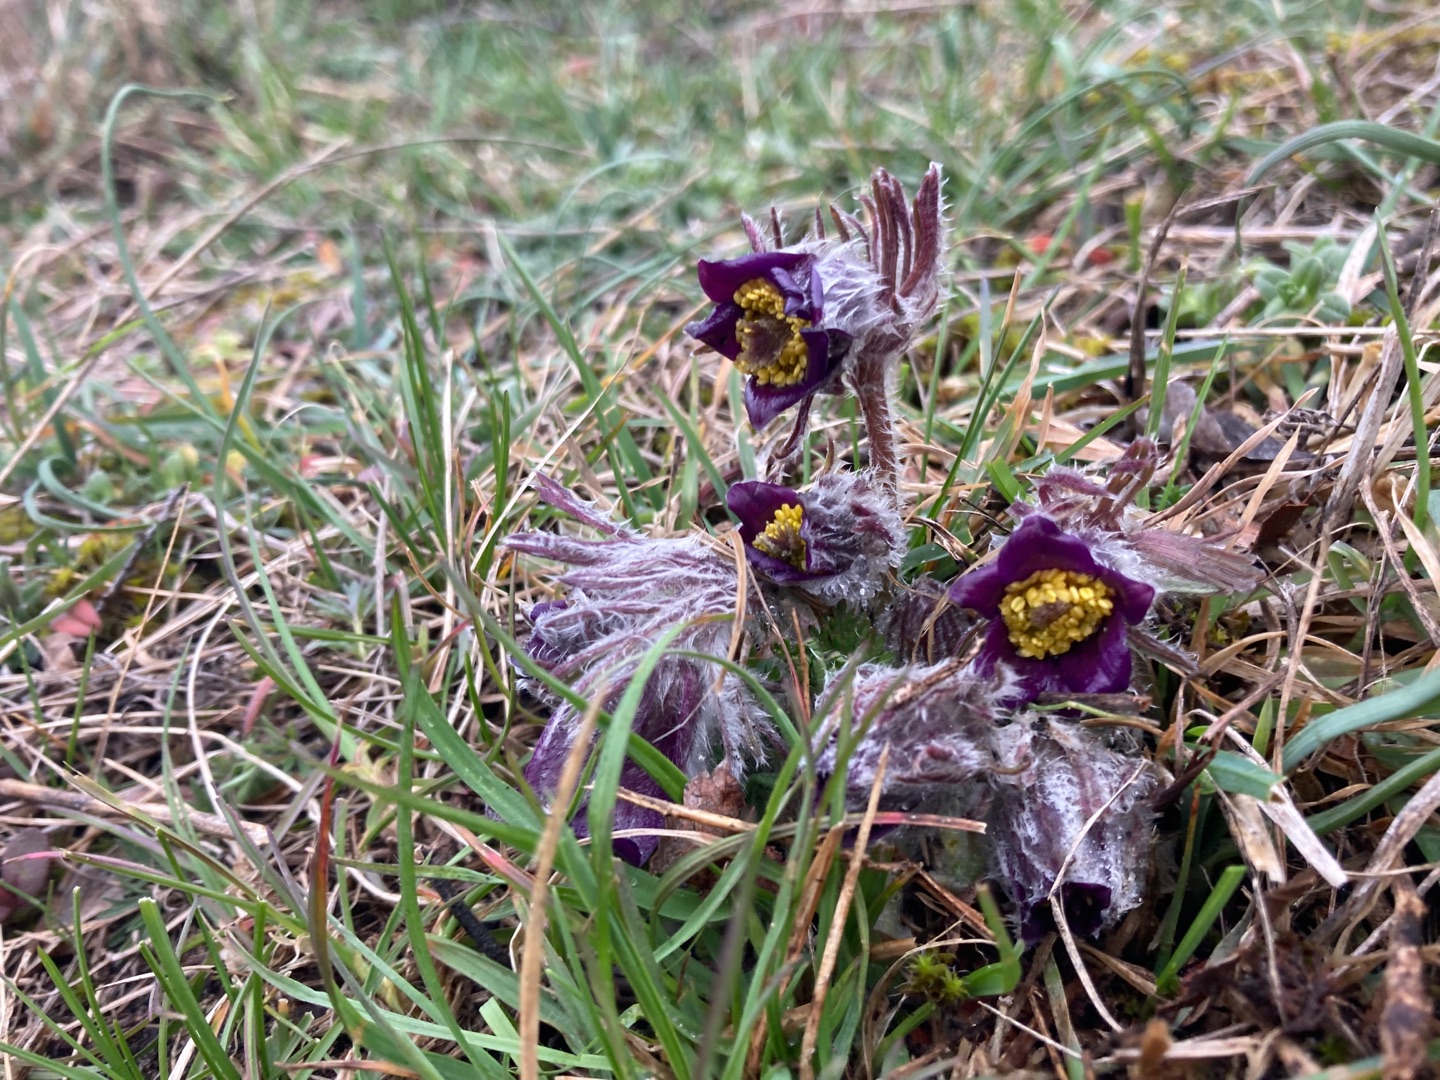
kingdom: Plantae
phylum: Tracheophyta
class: Magnoliopsida
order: Ranunculales
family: Ranunculaceae
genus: Pulsatilla
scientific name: Pulsatilla pratensis
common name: Nikkende kobjælde
